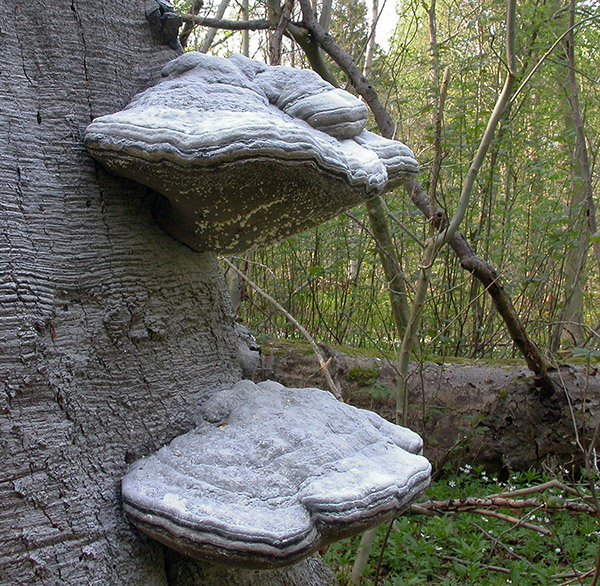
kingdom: Fungi
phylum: Basidiomycota
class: Agaricomycetes
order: Polyporales
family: Polyporaceae
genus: Fomes
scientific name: Fomes fomentarius
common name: tøndersvamp
